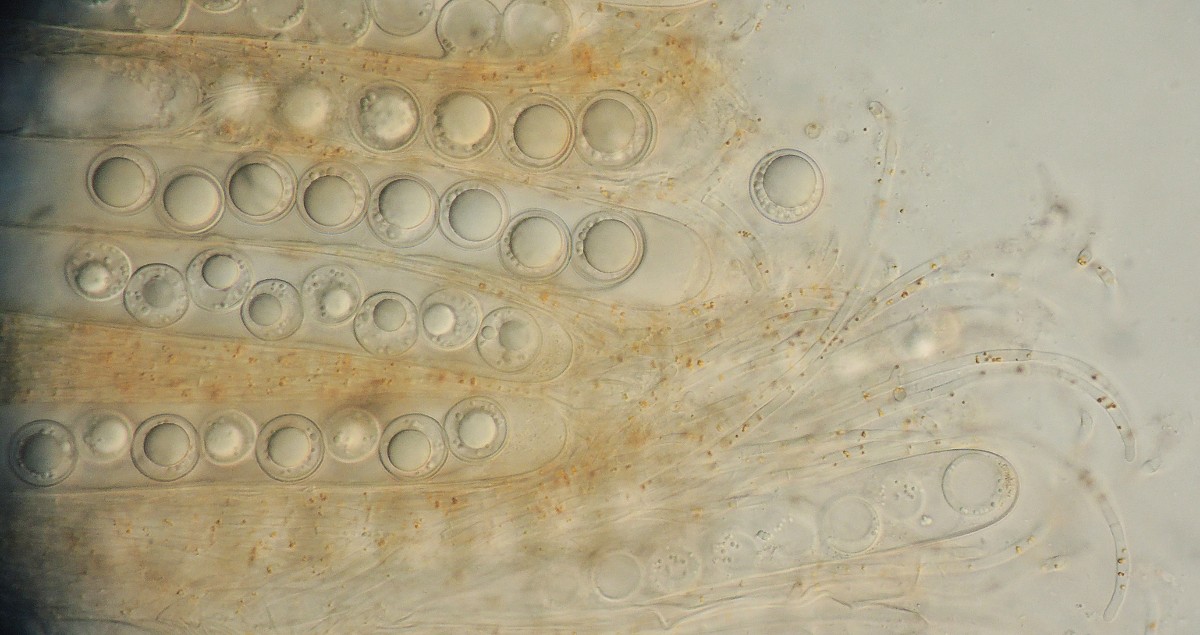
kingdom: Fungi
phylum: Ascomycota
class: Pezizomycetes
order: Pezizales
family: Pulvinulaceae
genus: Pulvinula
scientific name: Pulvinula convexella
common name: stor pudebæger
